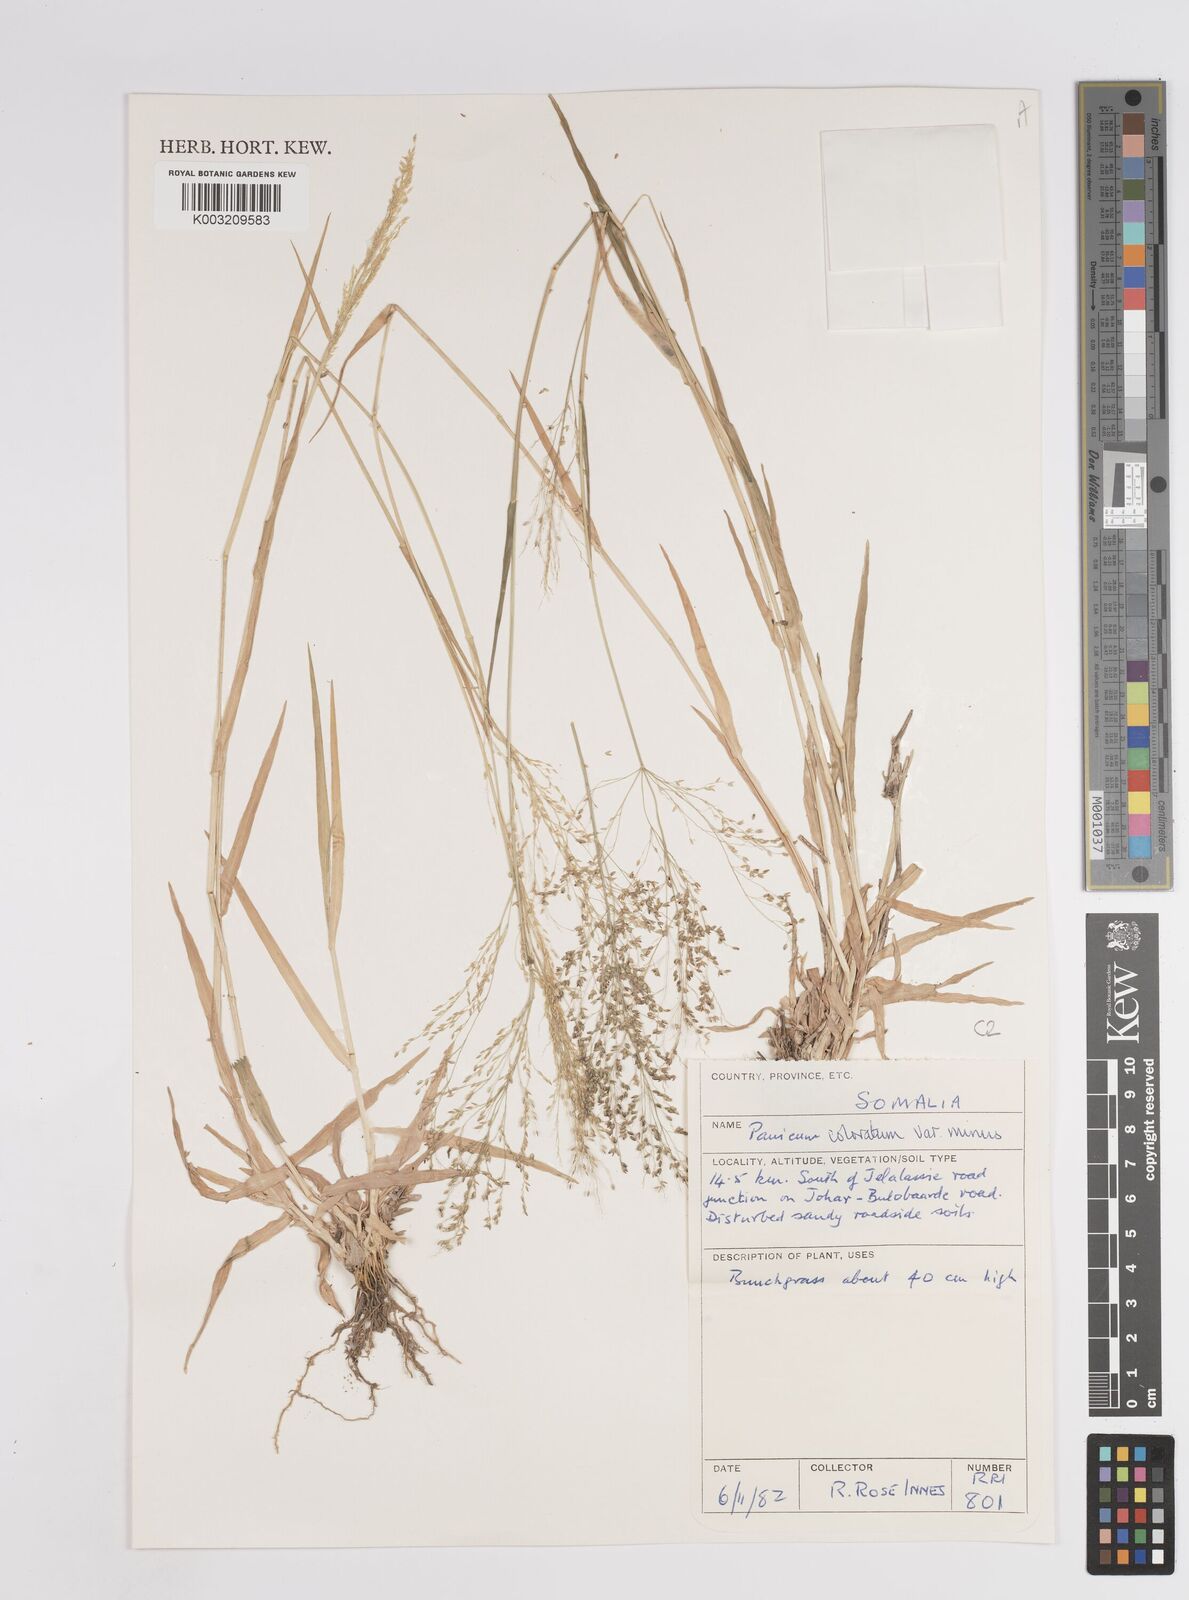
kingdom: Plantae
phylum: Tracheophyta
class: Liliopsida
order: Poales
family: Poaceae
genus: Panicum
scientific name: Panicum coloratum
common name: Kleingrass
